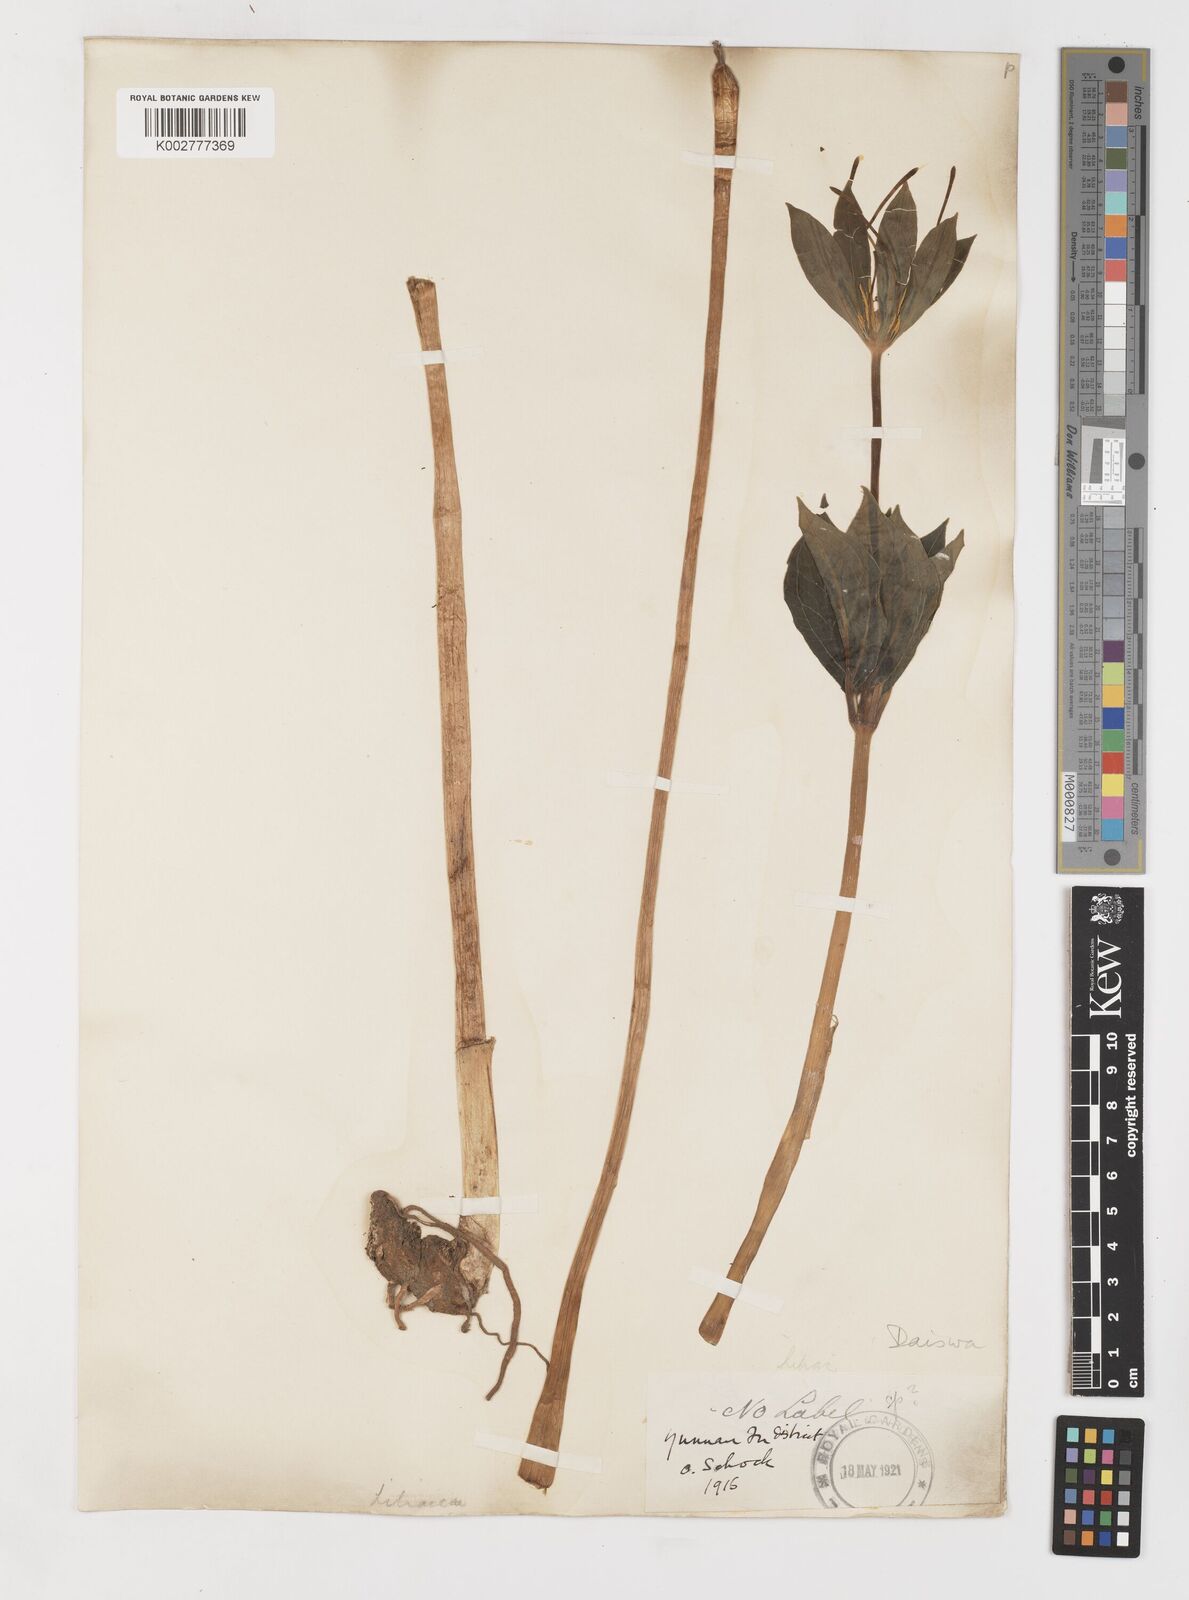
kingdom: Plantae
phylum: Tracheophyta
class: Liliopsida
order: Liliales
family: Melanthiaceae
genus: Paris
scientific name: Paris
